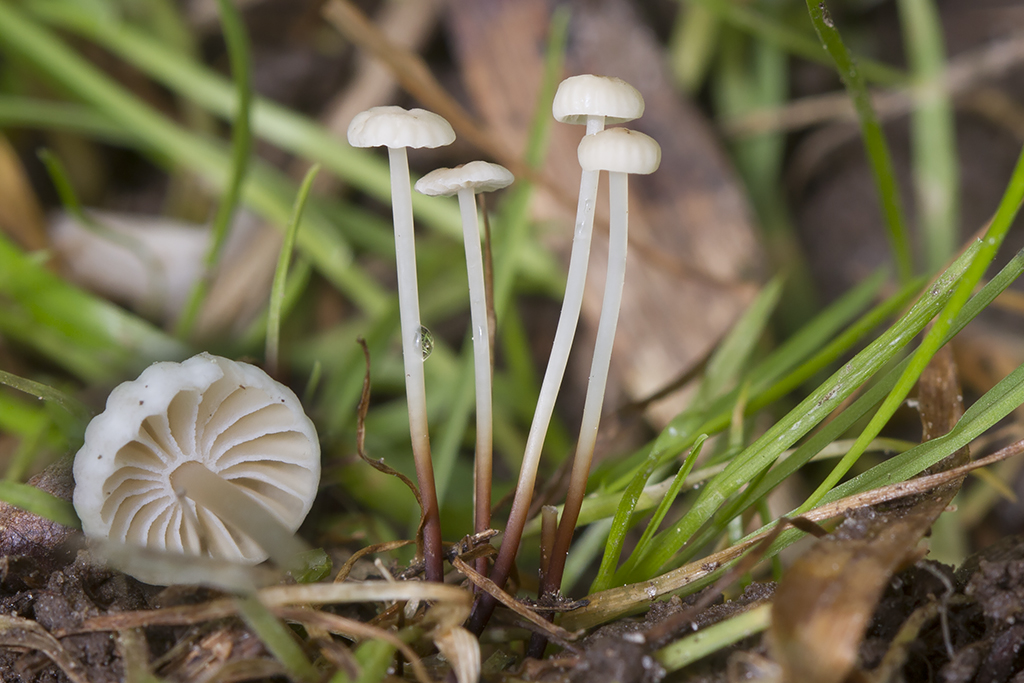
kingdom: Fungi
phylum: Basidiomycota
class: Agaricomycetes
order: Agaricales
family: Marasmiaceae
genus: Marasmius
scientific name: Marasmius rotula
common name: hjul-bruskhat
